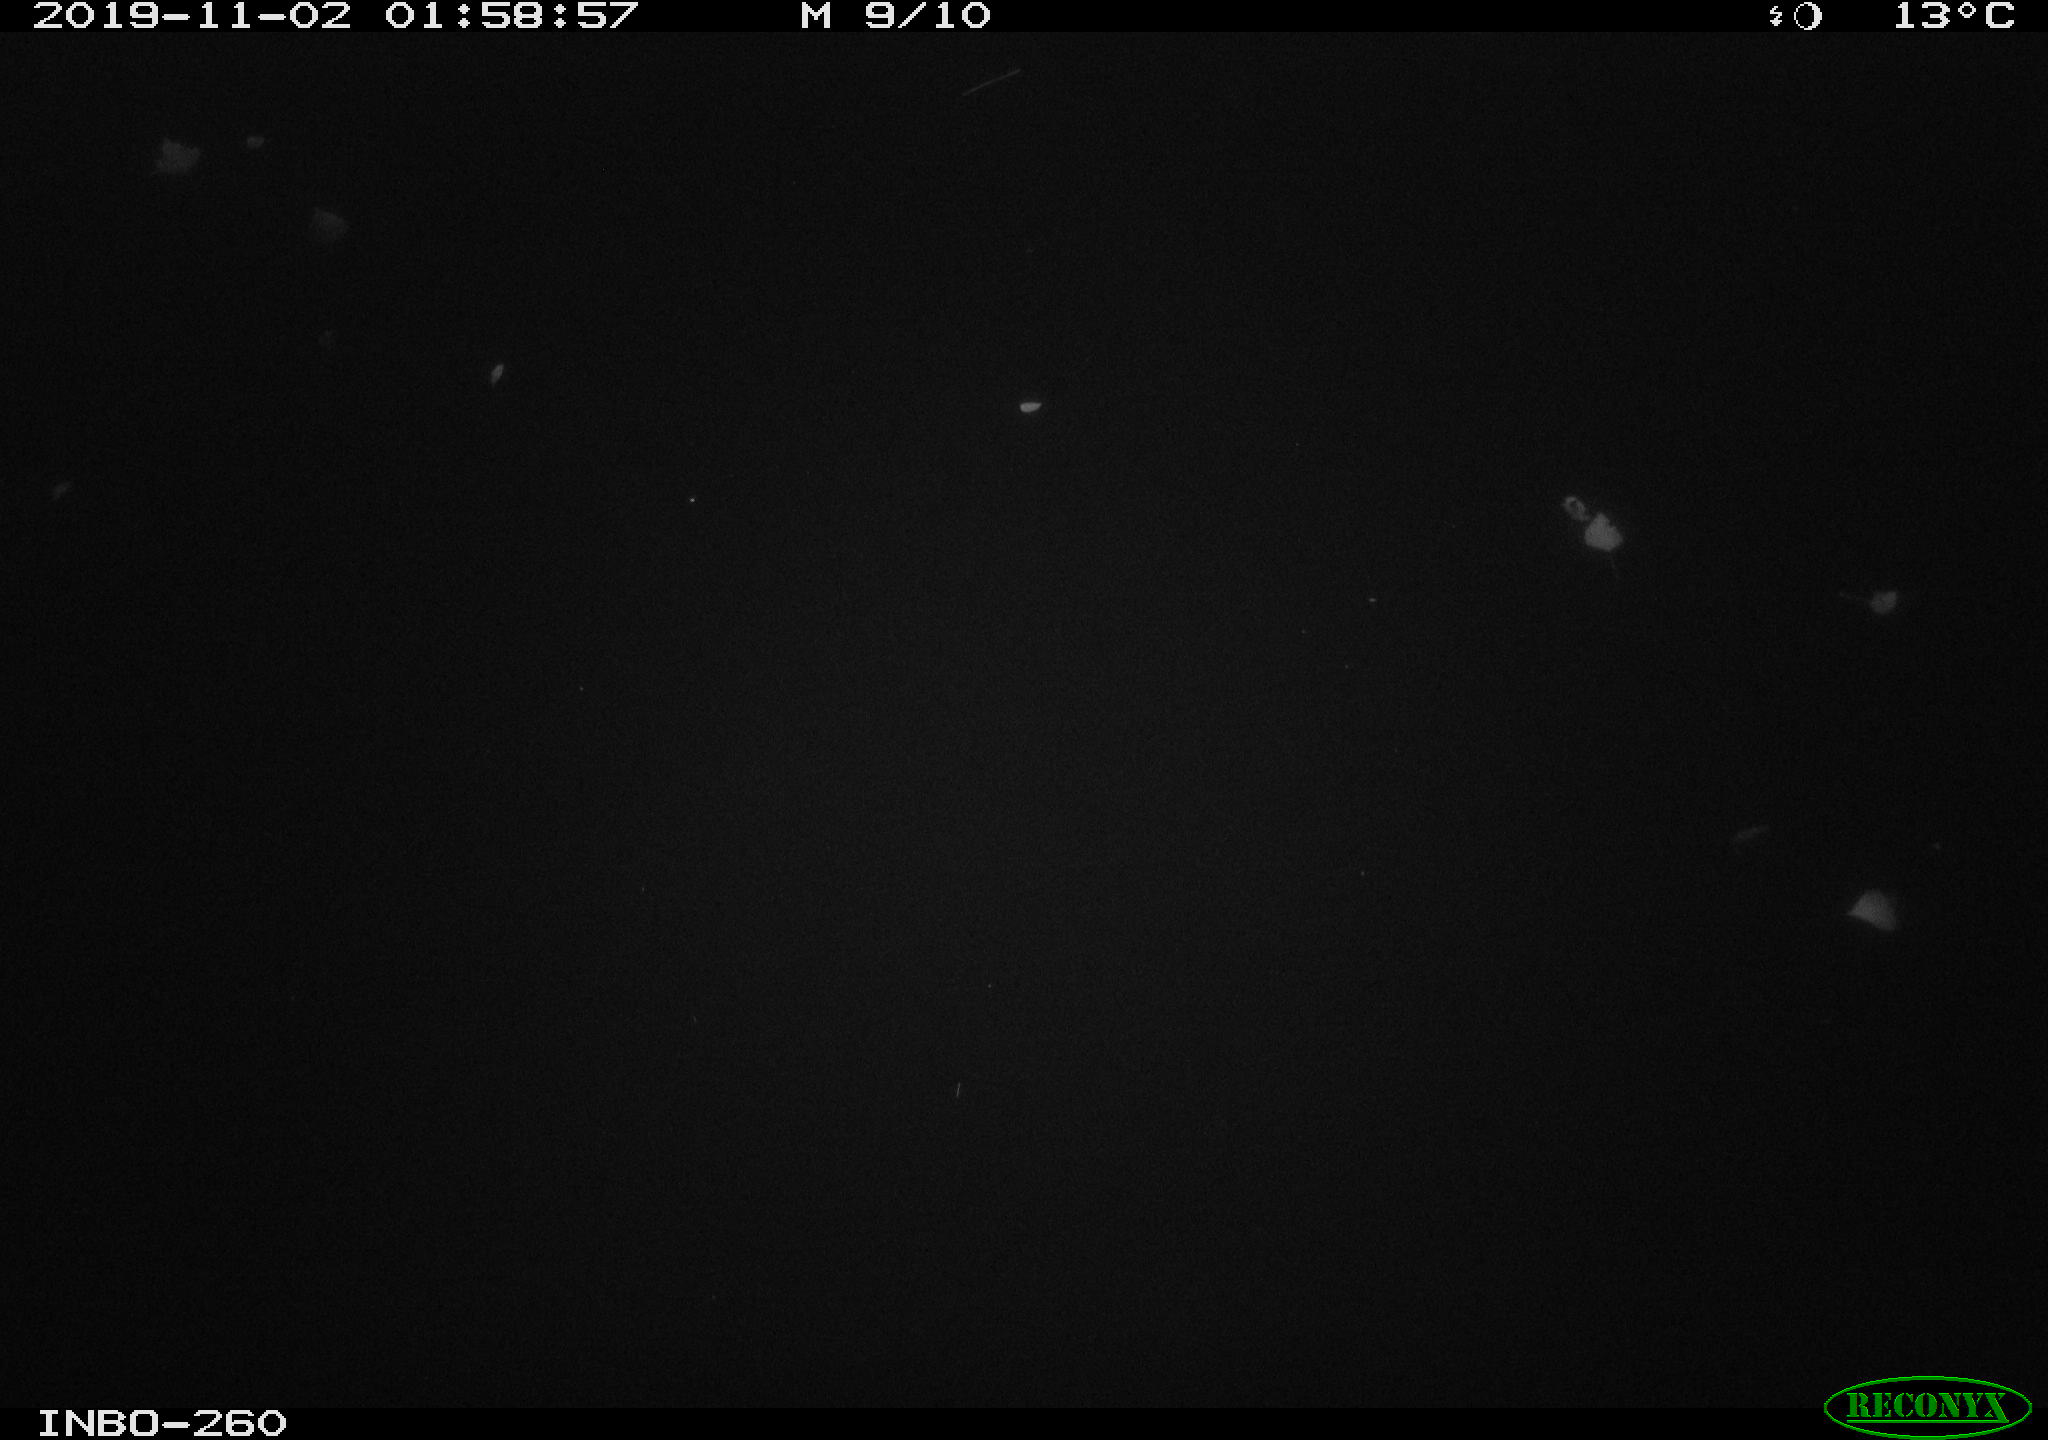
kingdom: Animalia
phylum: Chordata
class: Aves
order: Anseriformes
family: Anatidae
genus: Anas
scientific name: Anas platyrhynchos
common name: Mallard
